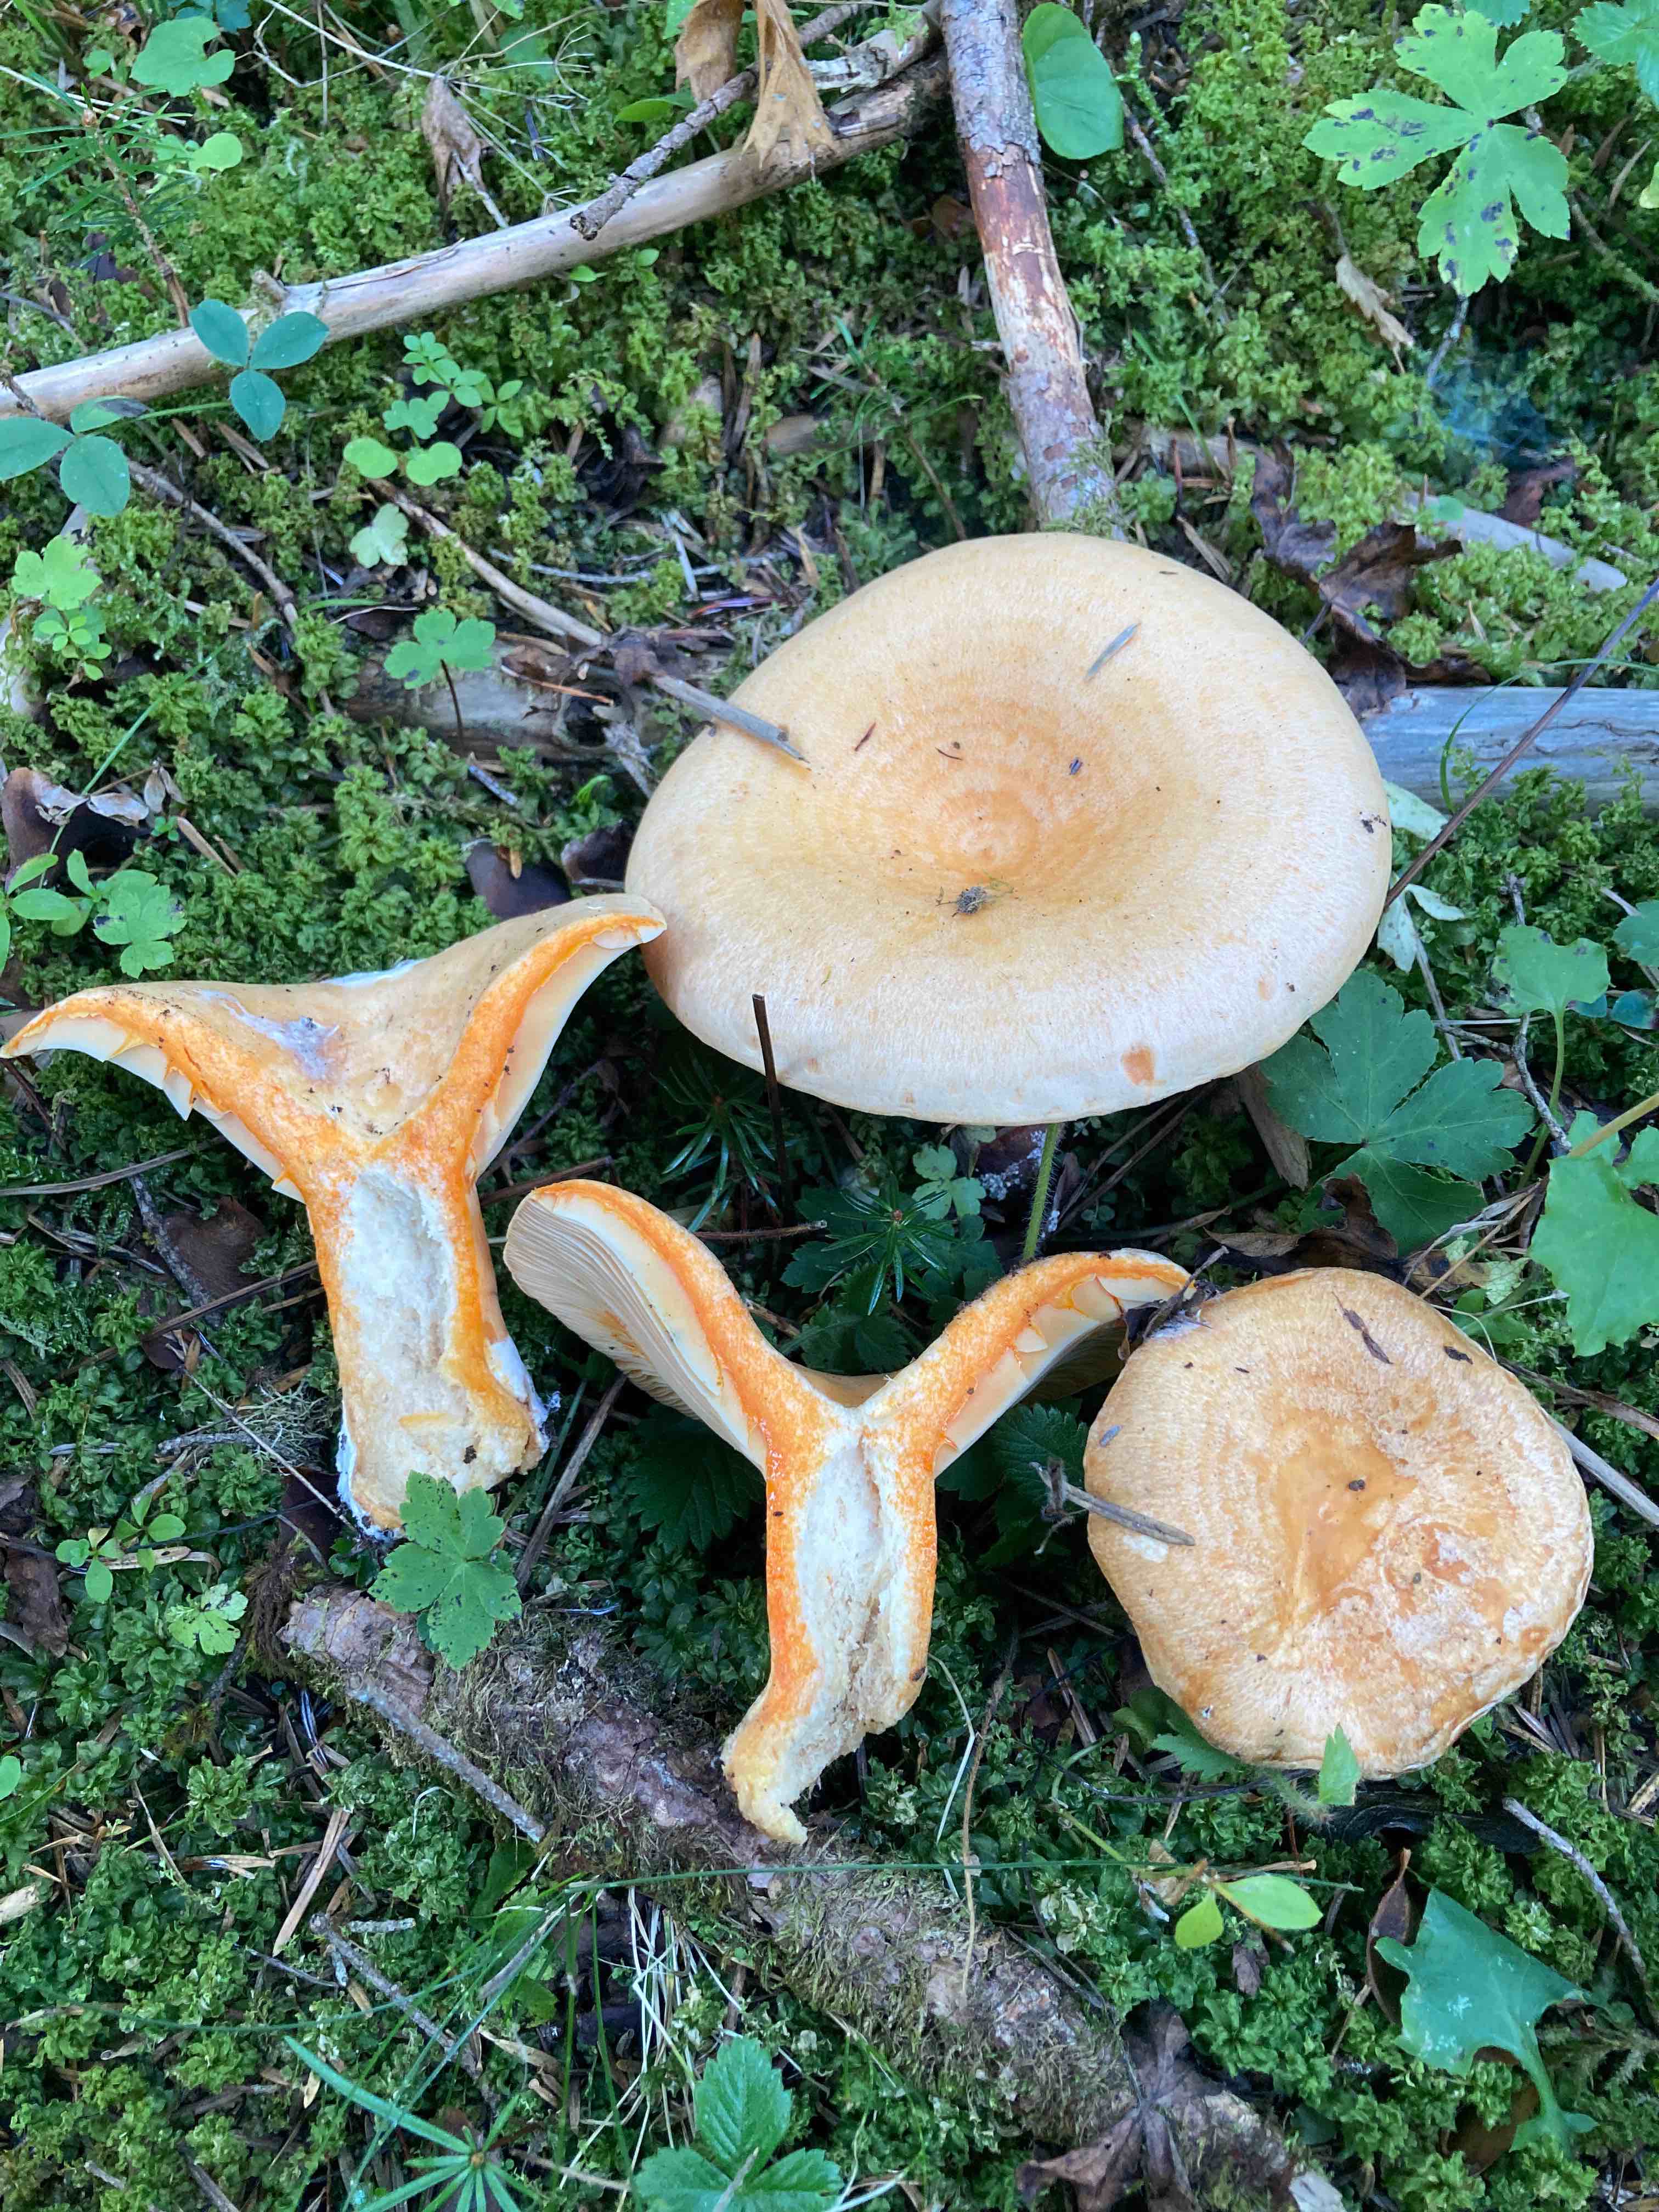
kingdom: Fungi
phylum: Basidiomycota
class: Agaricomycetes
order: Russulales
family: Russulaceae
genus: Lactarius
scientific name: Lactarius salmonicolor
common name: laksefarvet mælkehat
